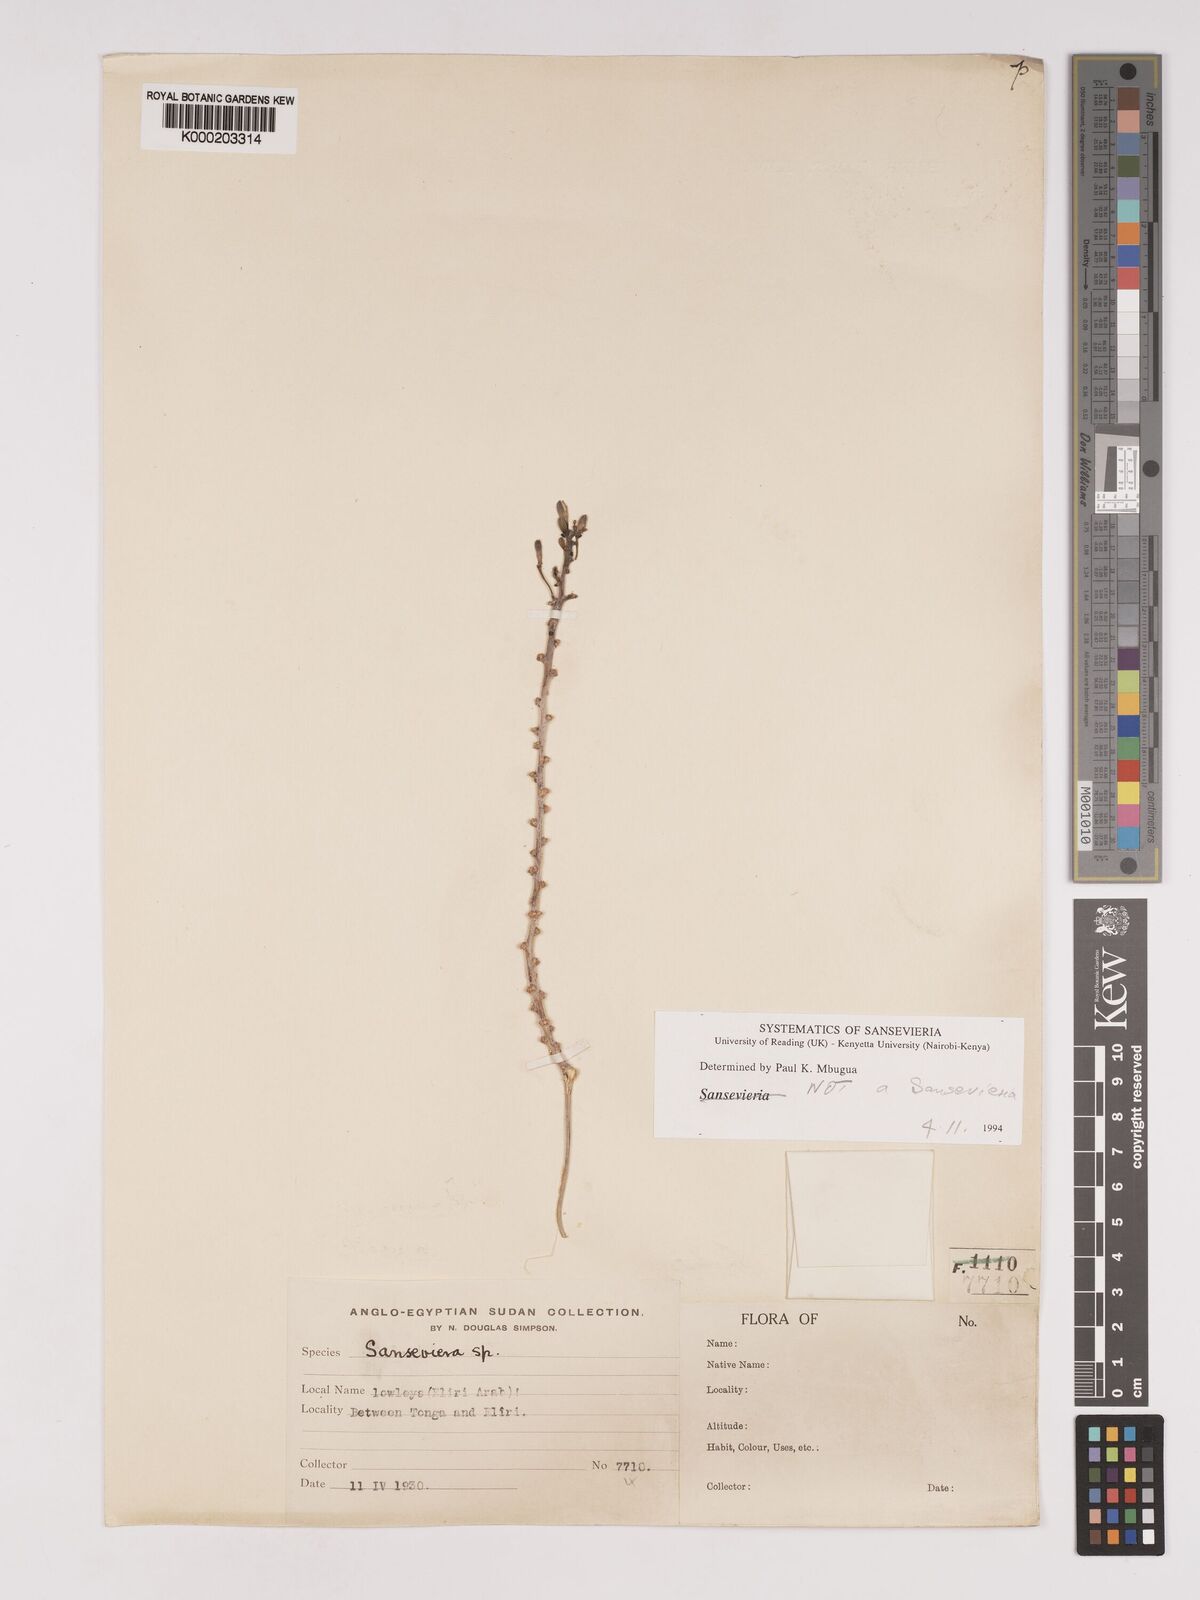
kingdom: Plantae
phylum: Tracheophyta
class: Liliopsida
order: Asparagales
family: Asparagaceae
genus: Dracaena
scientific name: Dracaena
